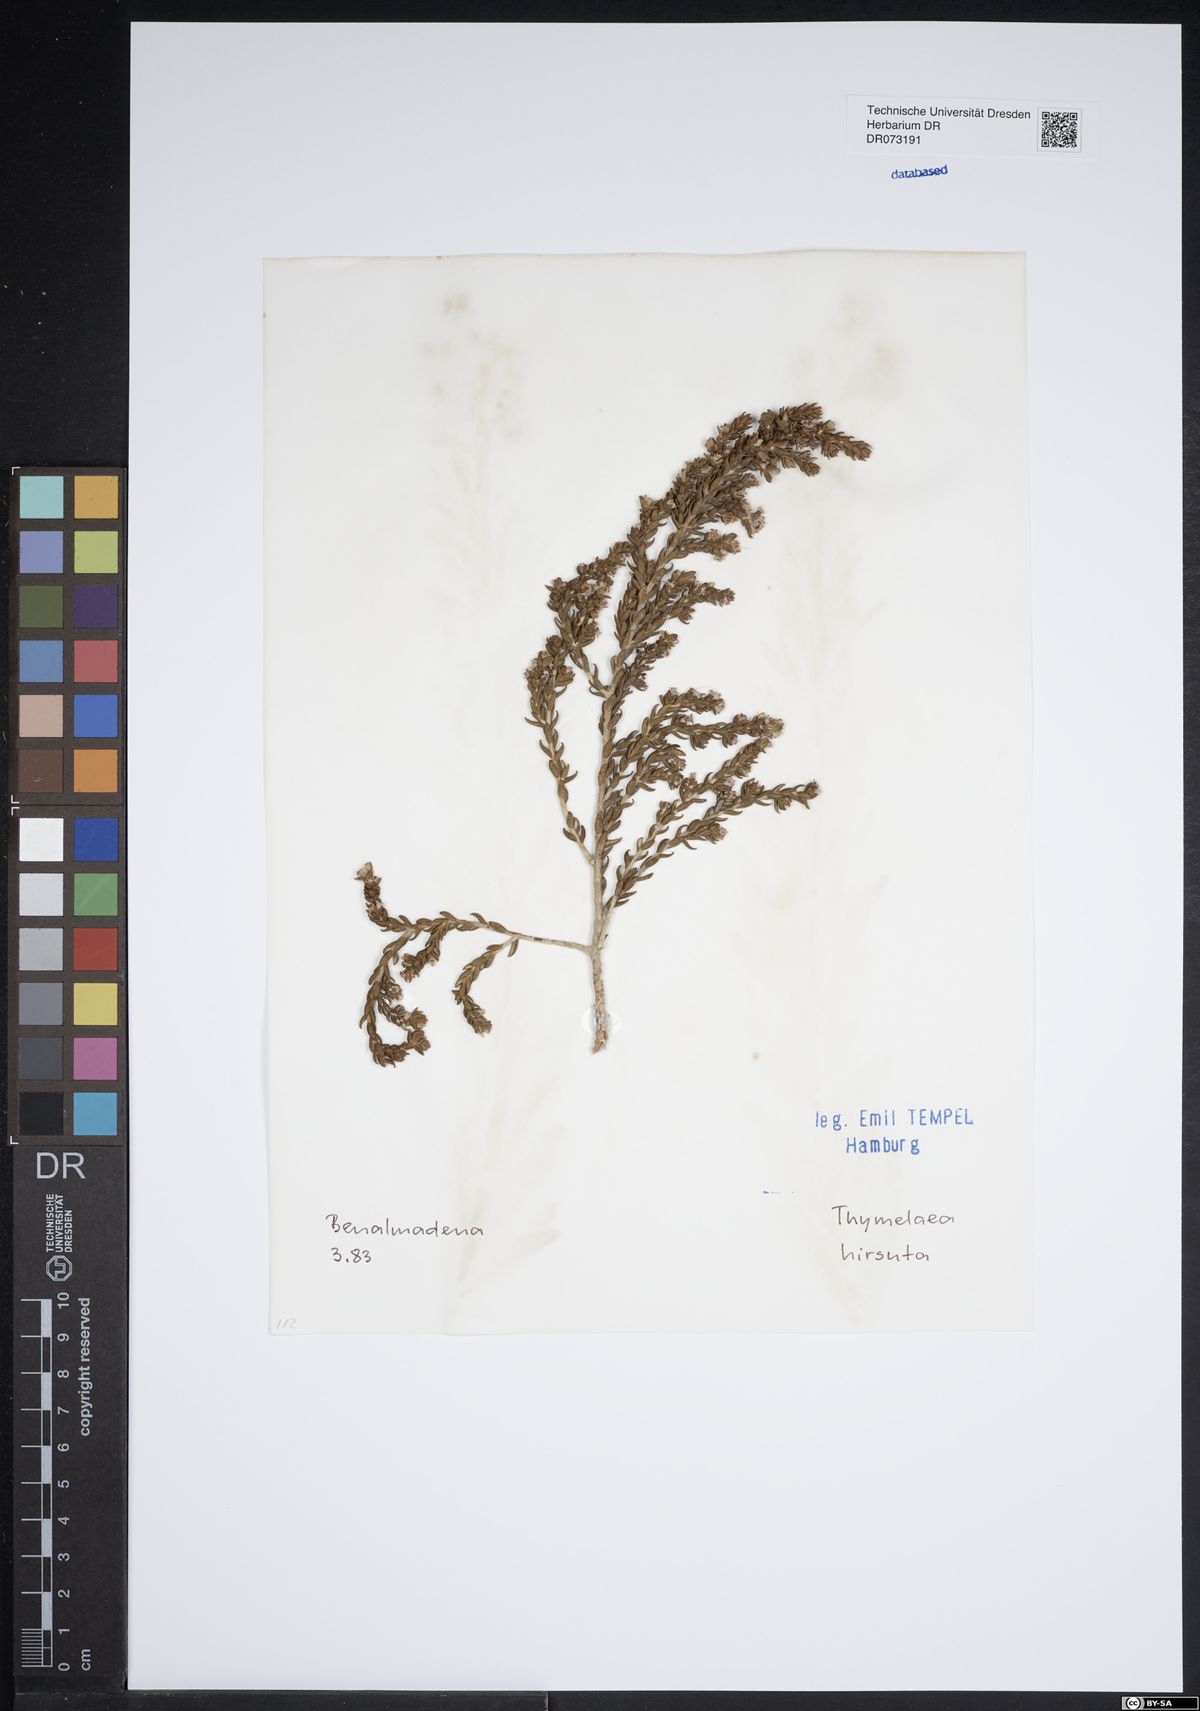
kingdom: Plantae
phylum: Tracheophyta
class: Magnoliopsida
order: Malvales
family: Thymelaeaceae
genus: Thymelaea
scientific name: Thymelaea hirsuta
